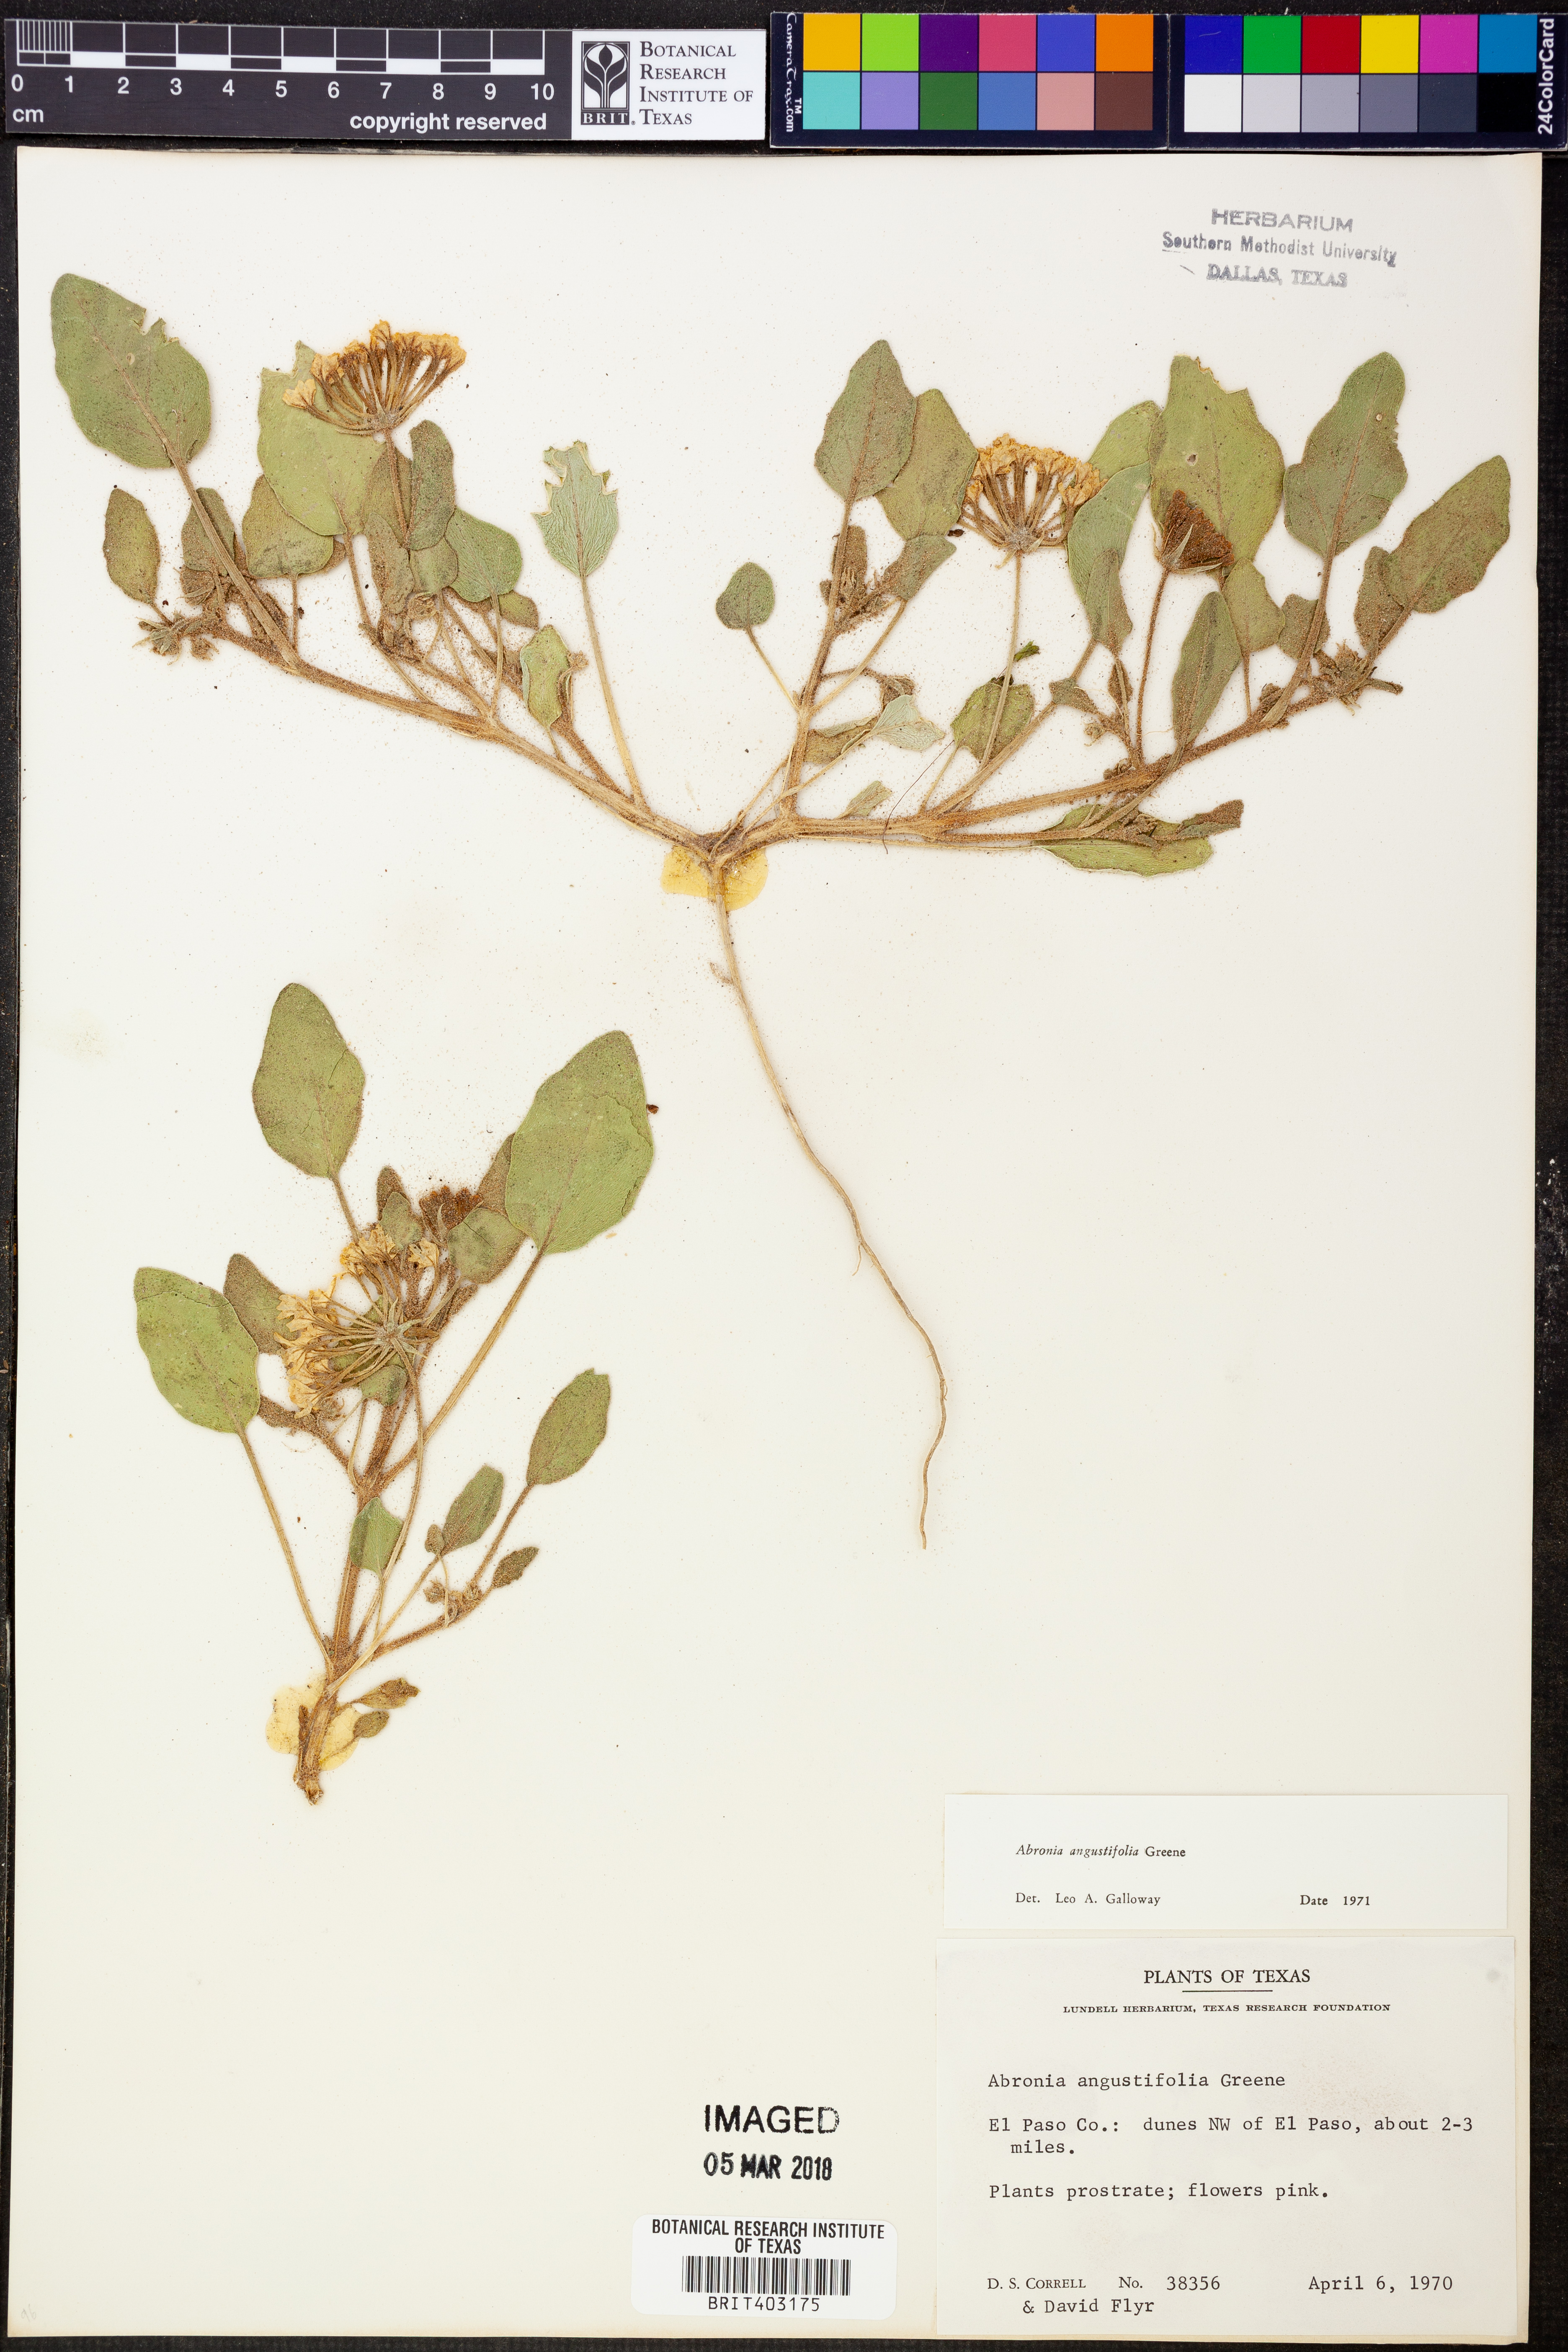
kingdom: Plantae
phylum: Tracheophyta
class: Magnoliopsida
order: Caryophyllales
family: Nyctaginaceae
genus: Abronia
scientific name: Abronia angustifolia
